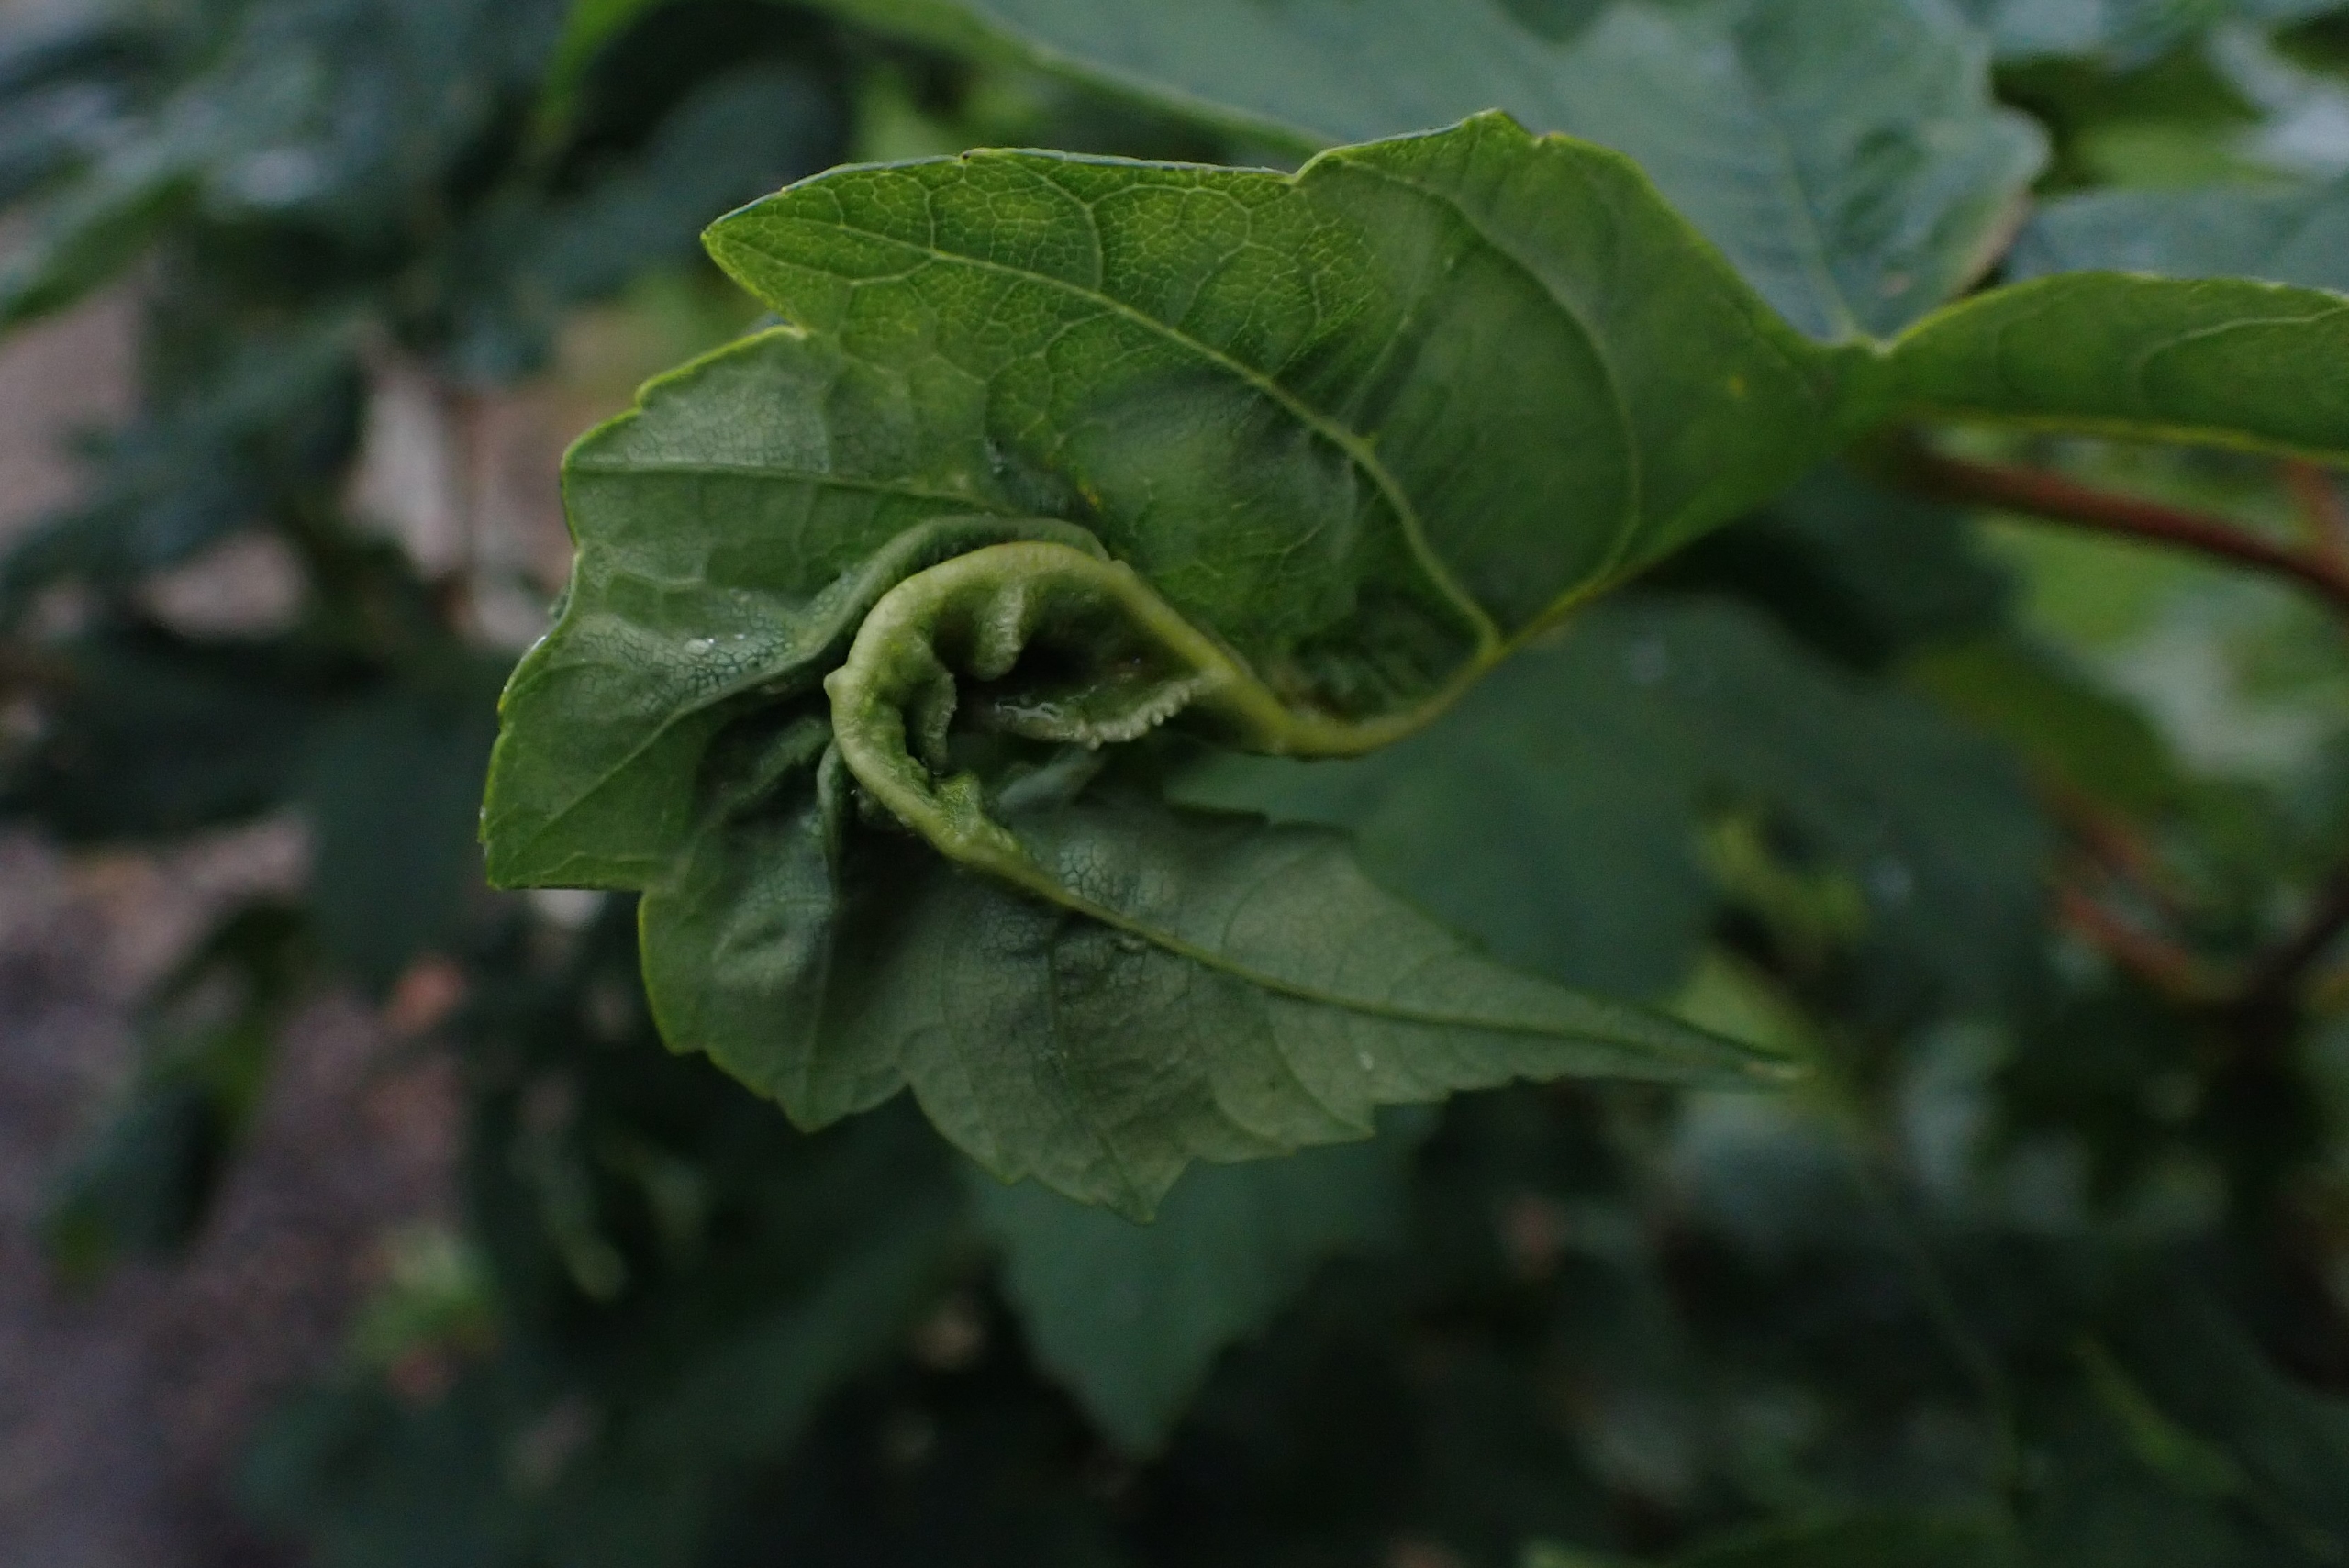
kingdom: Animalia
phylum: Arthropoda
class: Insecta
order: Diptera
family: Cecidomyiidae
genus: Dasineura
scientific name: Dasineura irregularis
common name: Ahornkrusegalmyg
